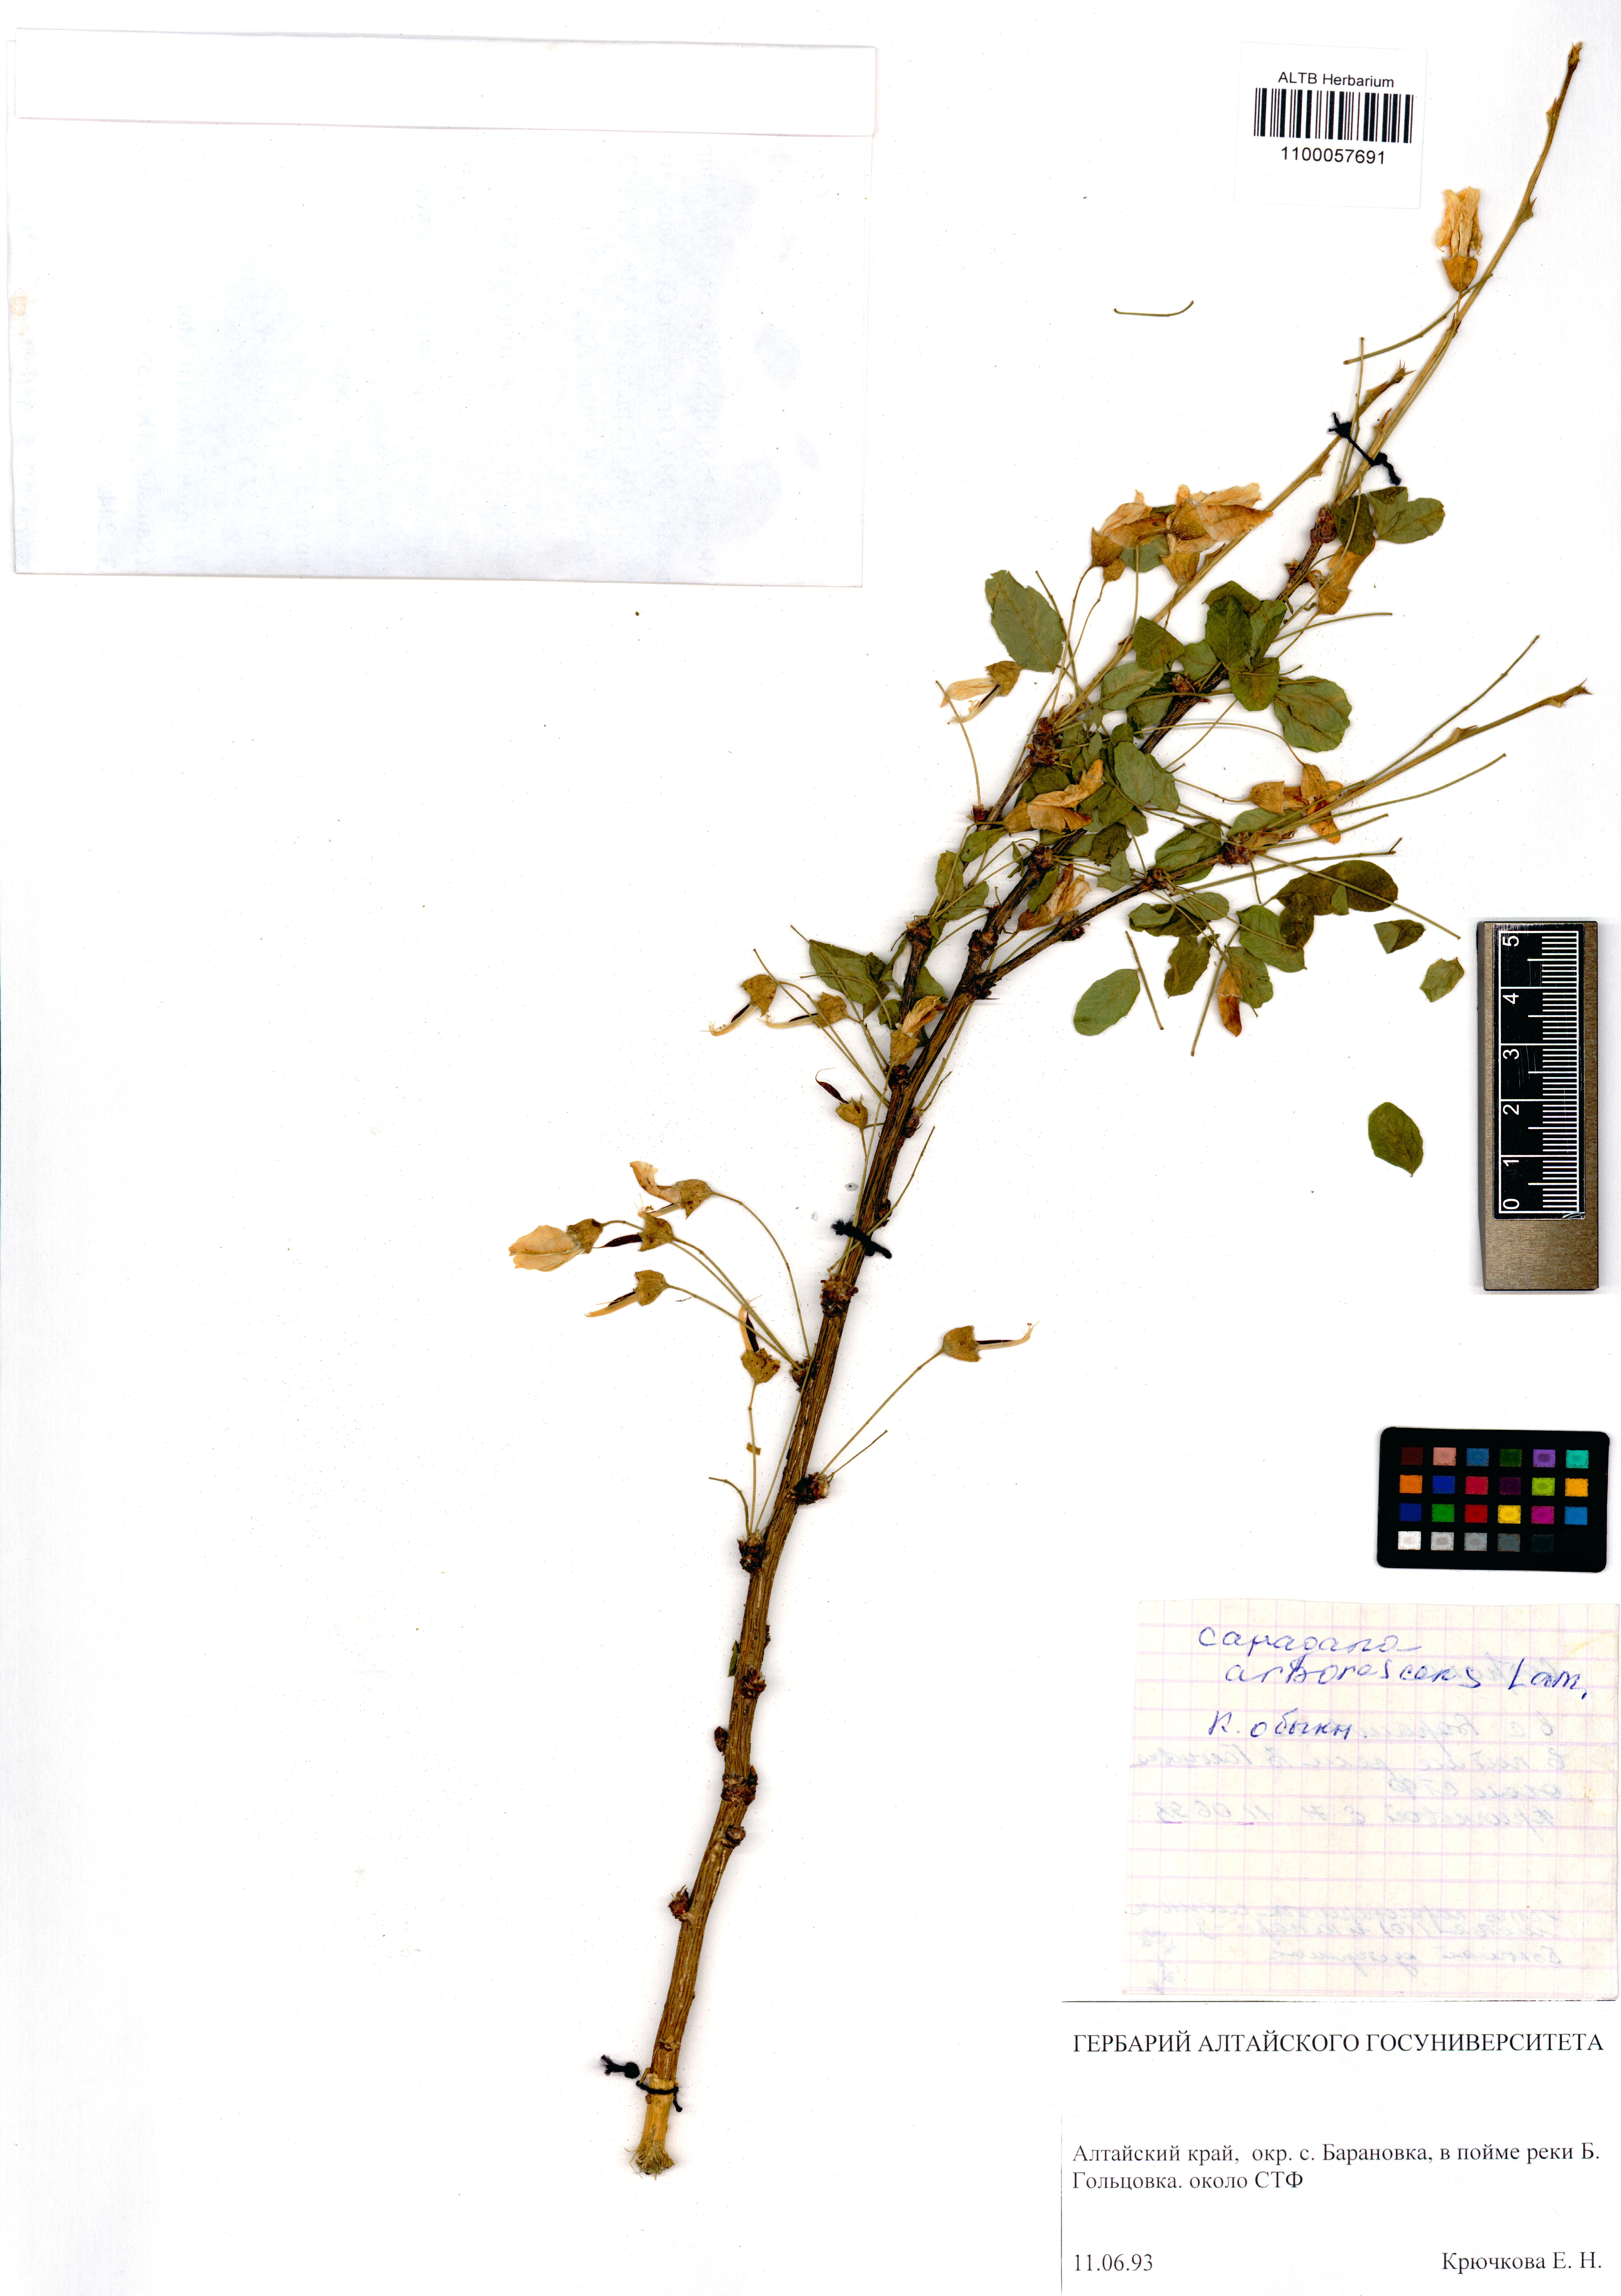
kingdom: Plantae
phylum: Tracheophyta
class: Magnoliopsida
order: Fabales
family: Fabaceae
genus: Caragana
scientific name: Caragana arborescens
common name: Siberian peashrub
